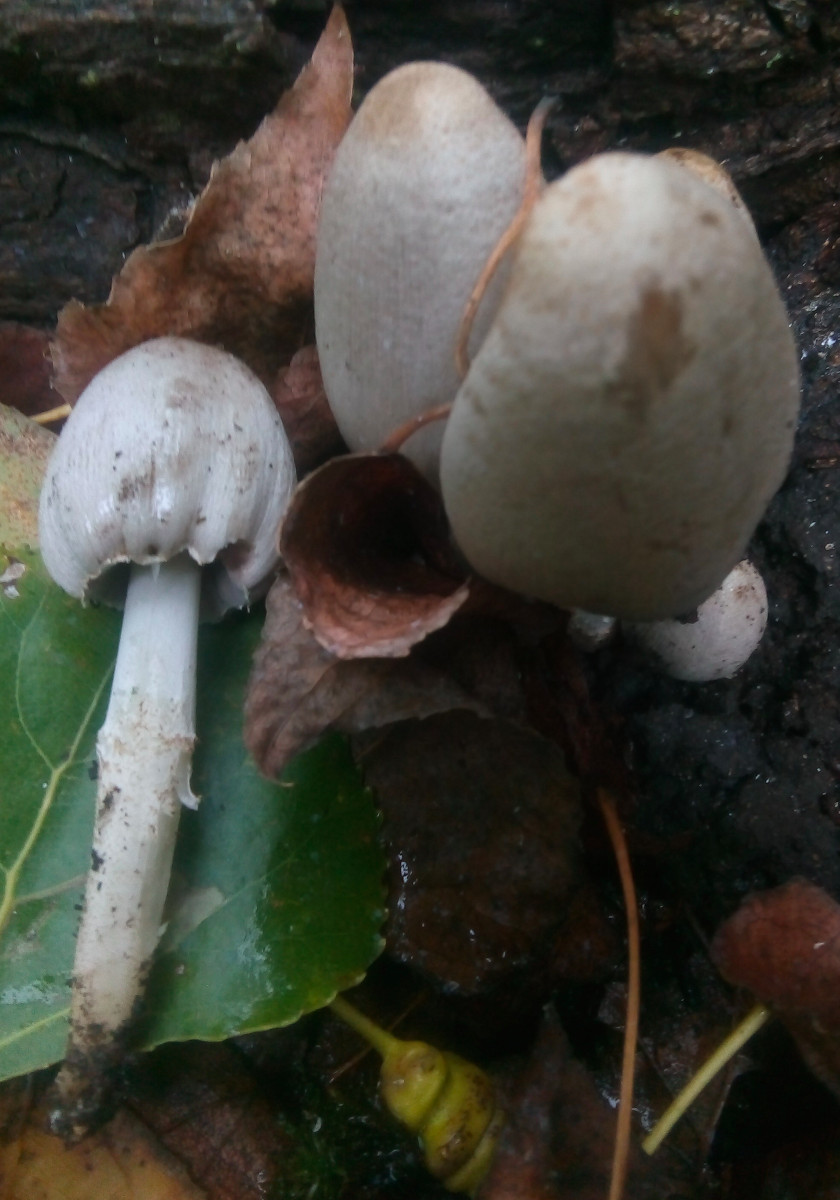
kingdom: Fungi
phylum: Basidiomycota
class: Agaricomycetes
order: Agaricales
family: Psathyrellaceae
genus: Coprinopsis
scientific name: Coprinopsis atramentaria
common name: almindelig blækhat
